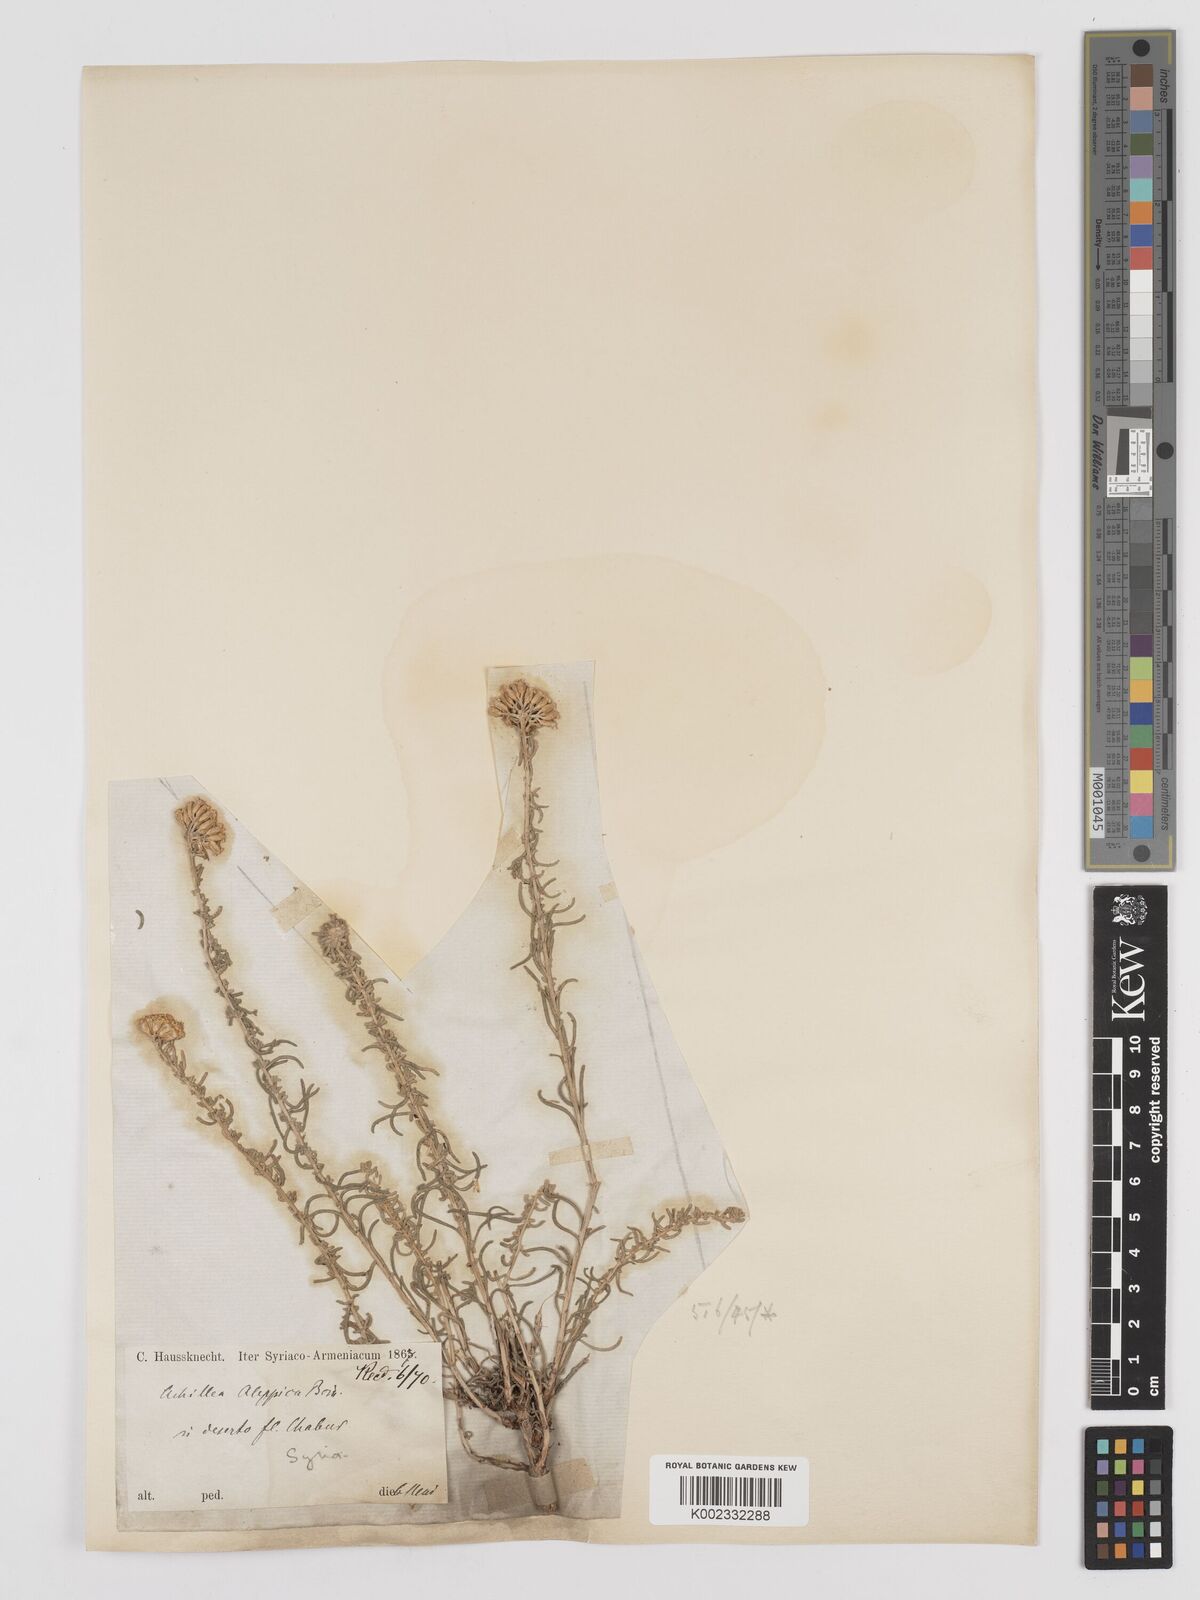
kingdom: Plantae
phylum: Tracheophyta
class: Magnoliopsida
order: Asterales
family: Asteraceae
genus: Achillea
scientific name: Achillea aleppica
